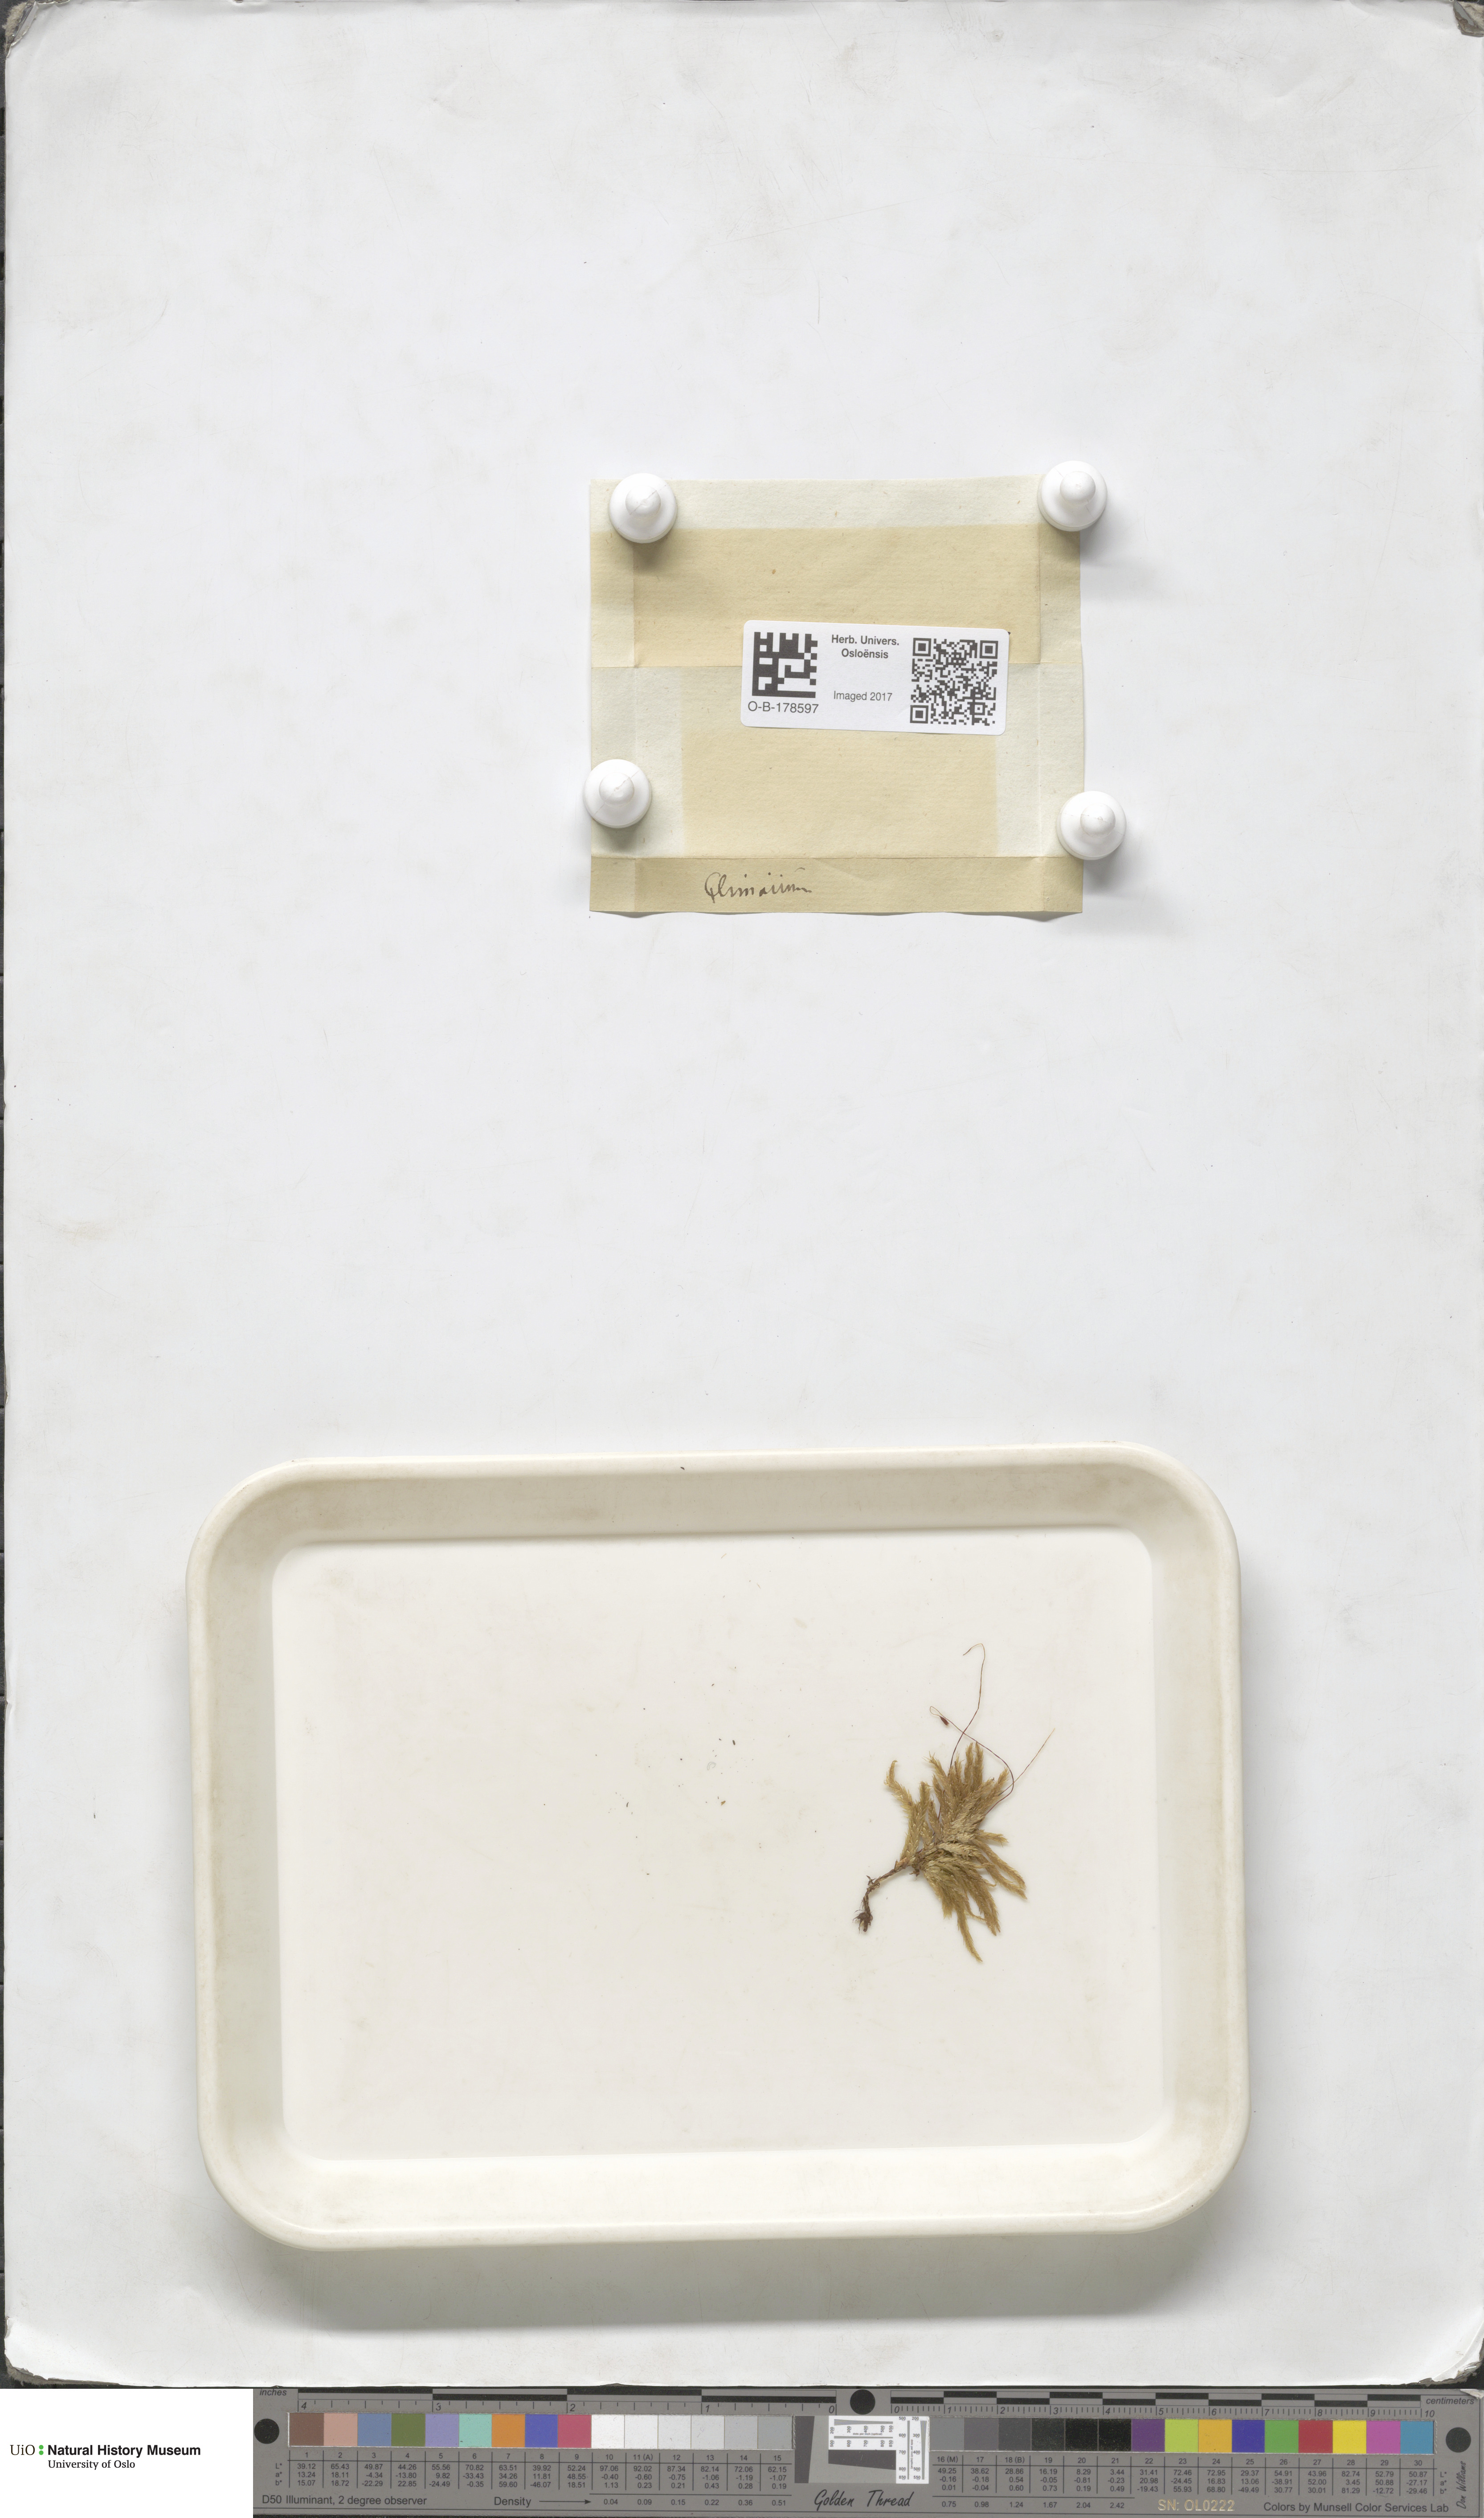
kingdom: Plantae
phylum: Bryophyta
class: Bryopsida
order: Hypnales
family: Climaciaceae
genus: Climacium
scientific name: Climacium dendroides
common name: Northern tree moss
